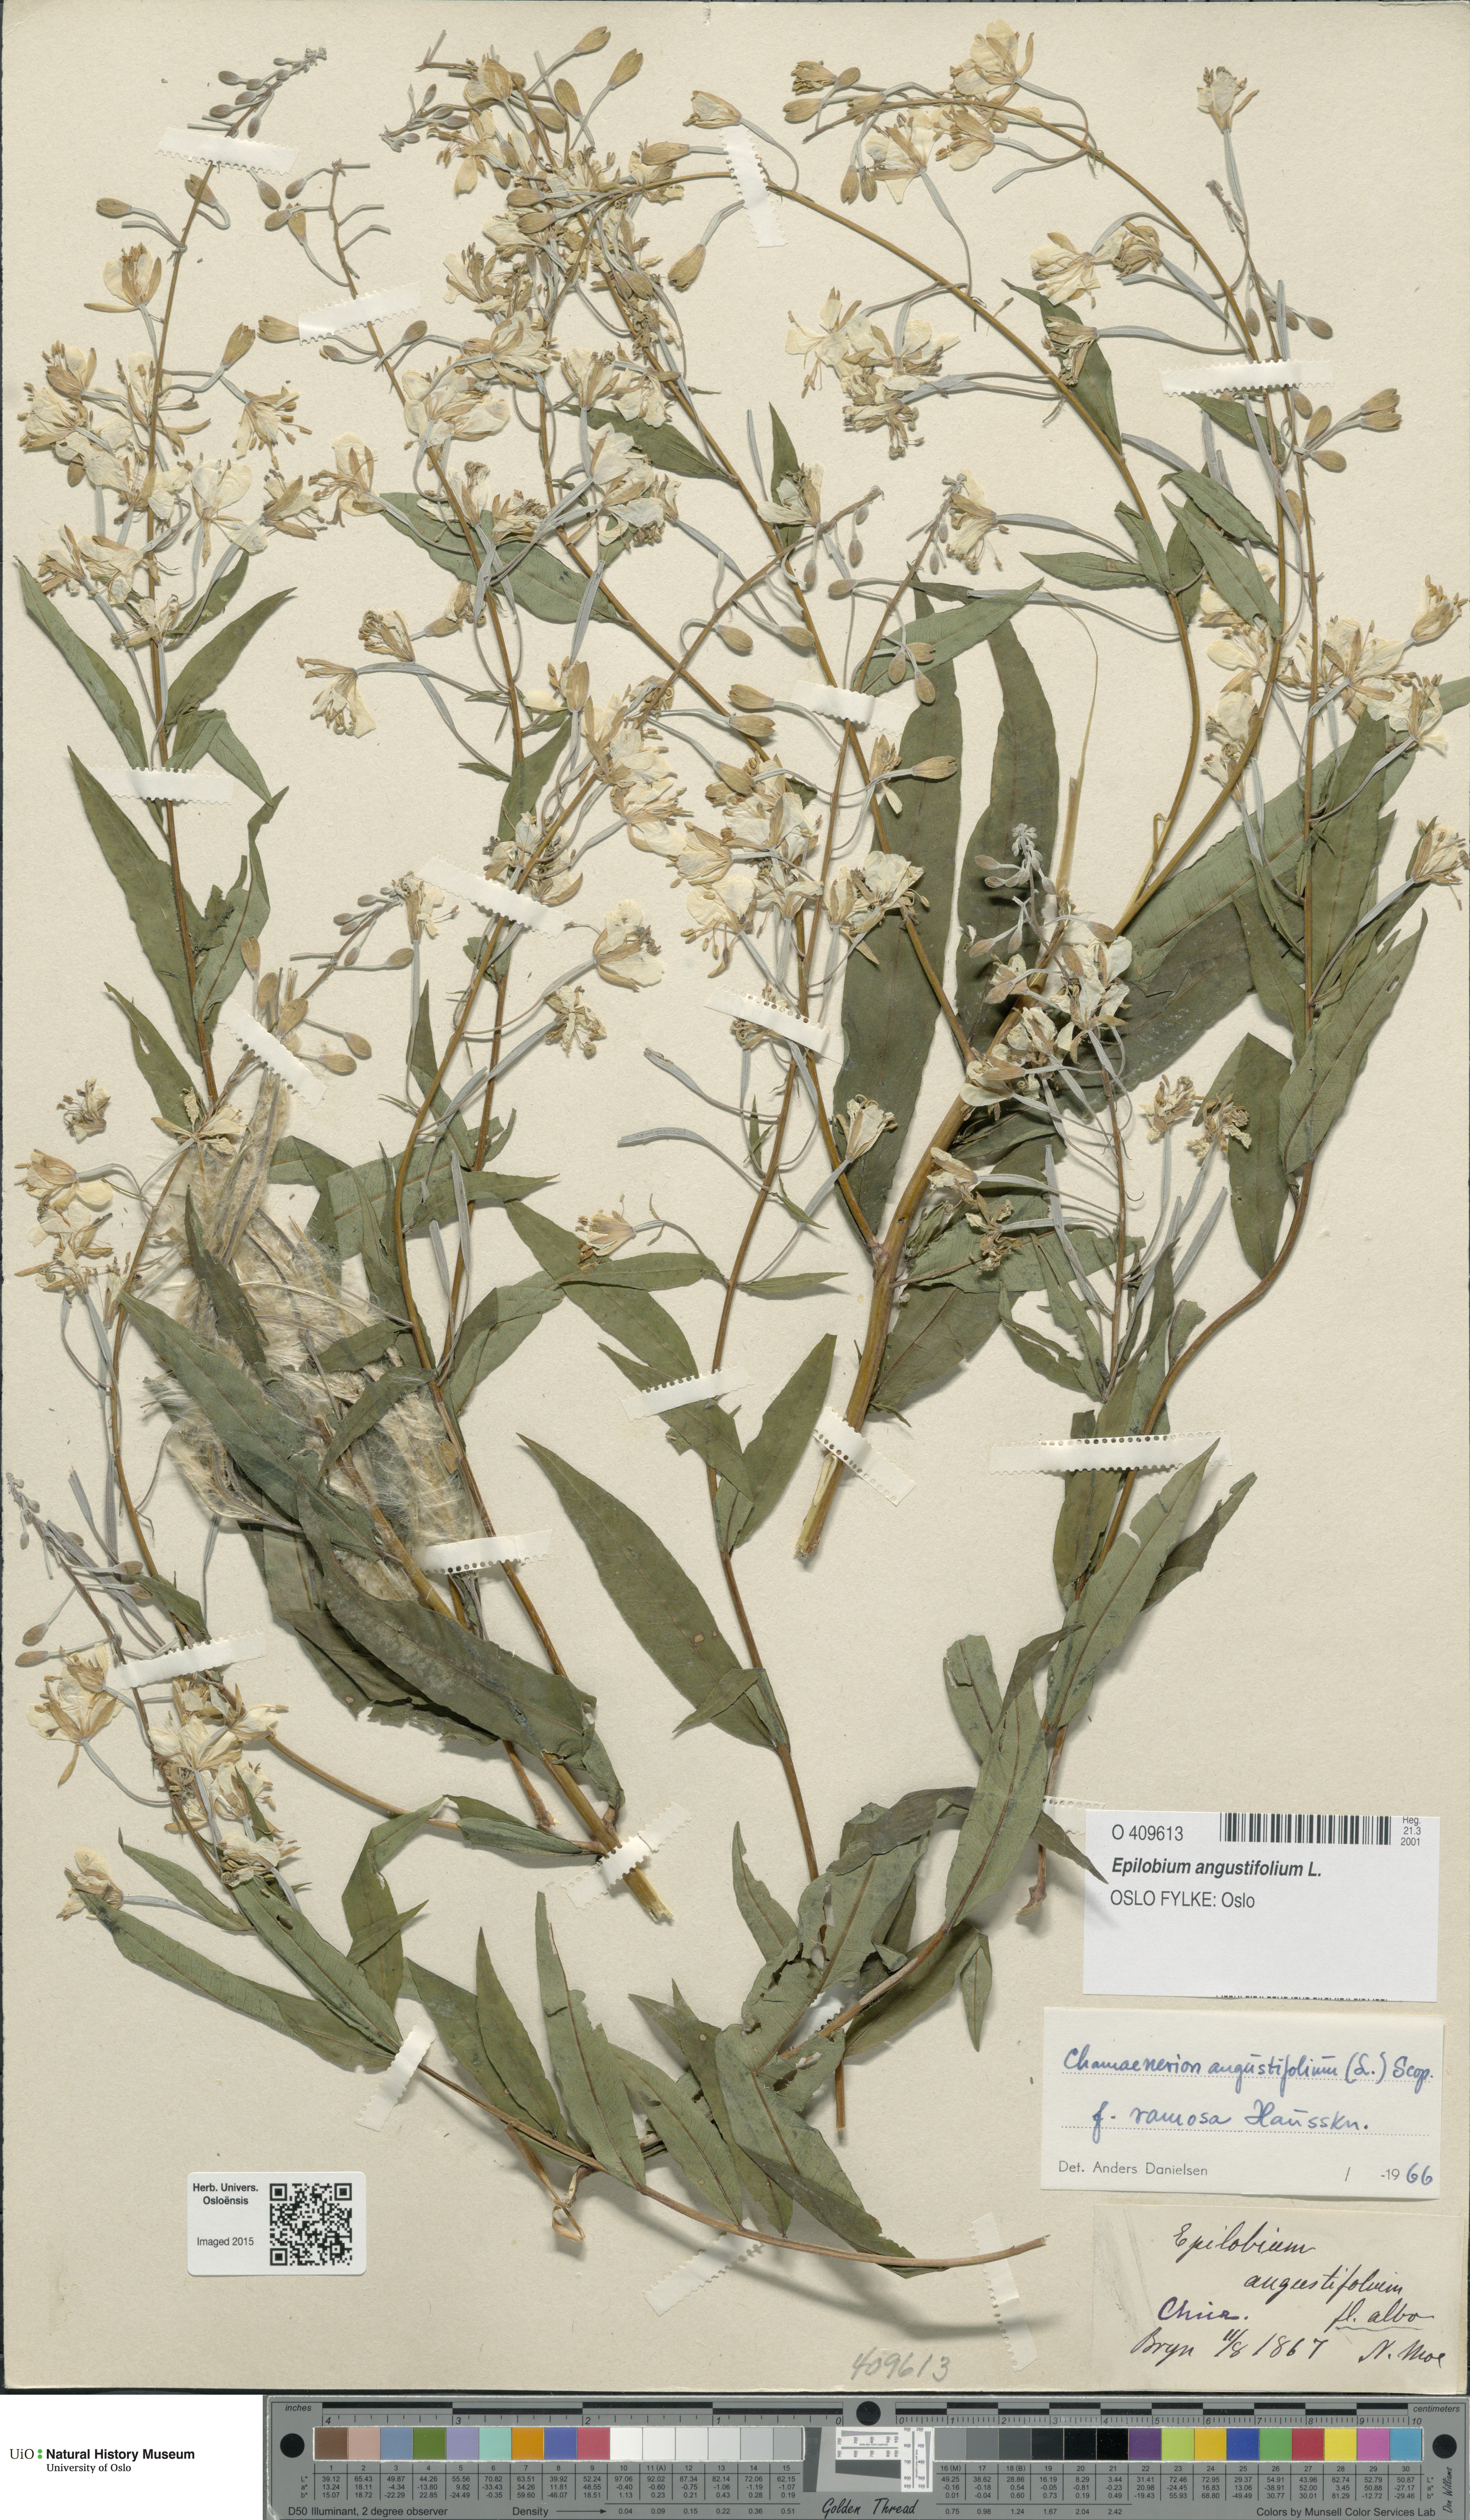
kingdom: Plantae
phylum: Tracheophyta
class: Magnoliopsida
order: Myrtales
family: Onagraceae
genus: Chamaenerion
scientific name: Chamaenerion angustifolium
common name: Fireweed
